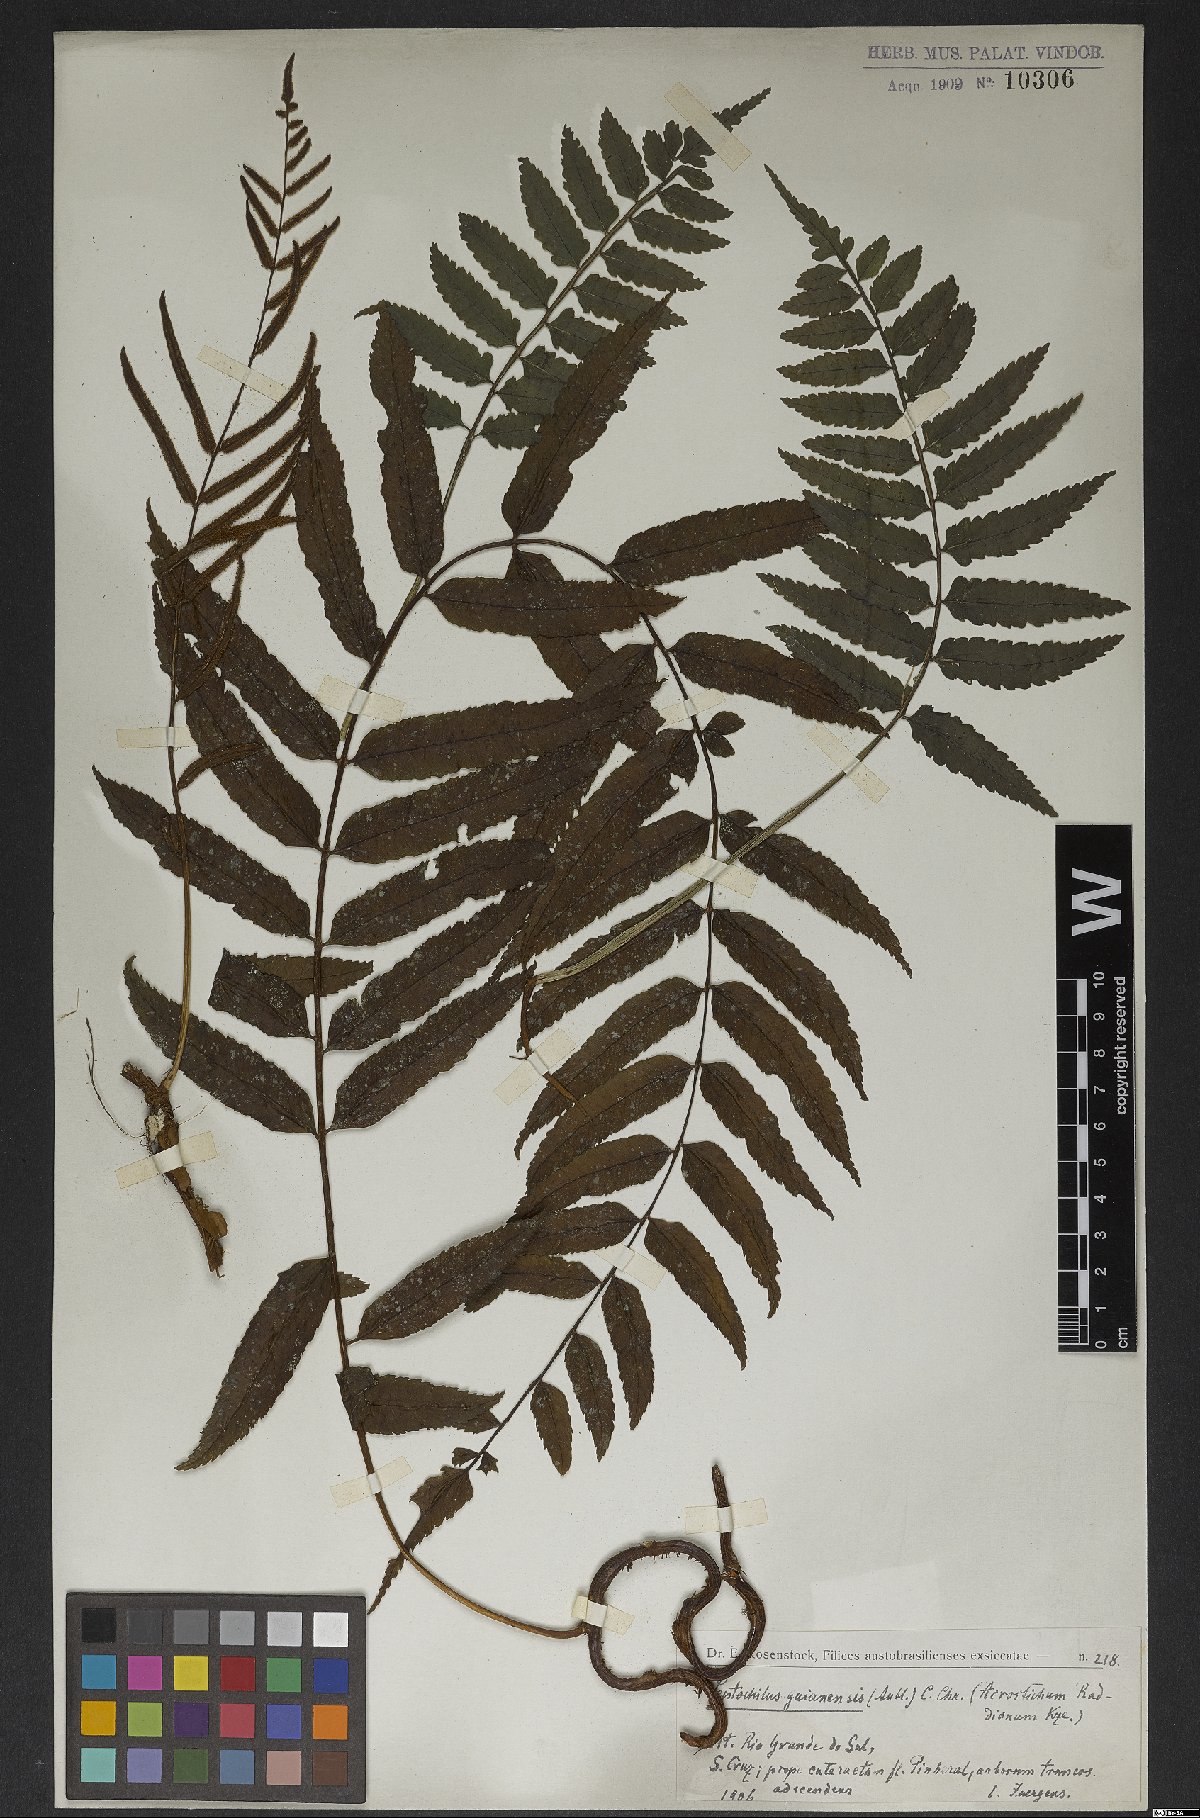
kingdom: Plantae
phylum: Tracheophyta
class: Polypodiopsida
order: Polypodiales
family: Dryopteridaceae
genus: Mickelia
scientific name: Mickelia guianensis
